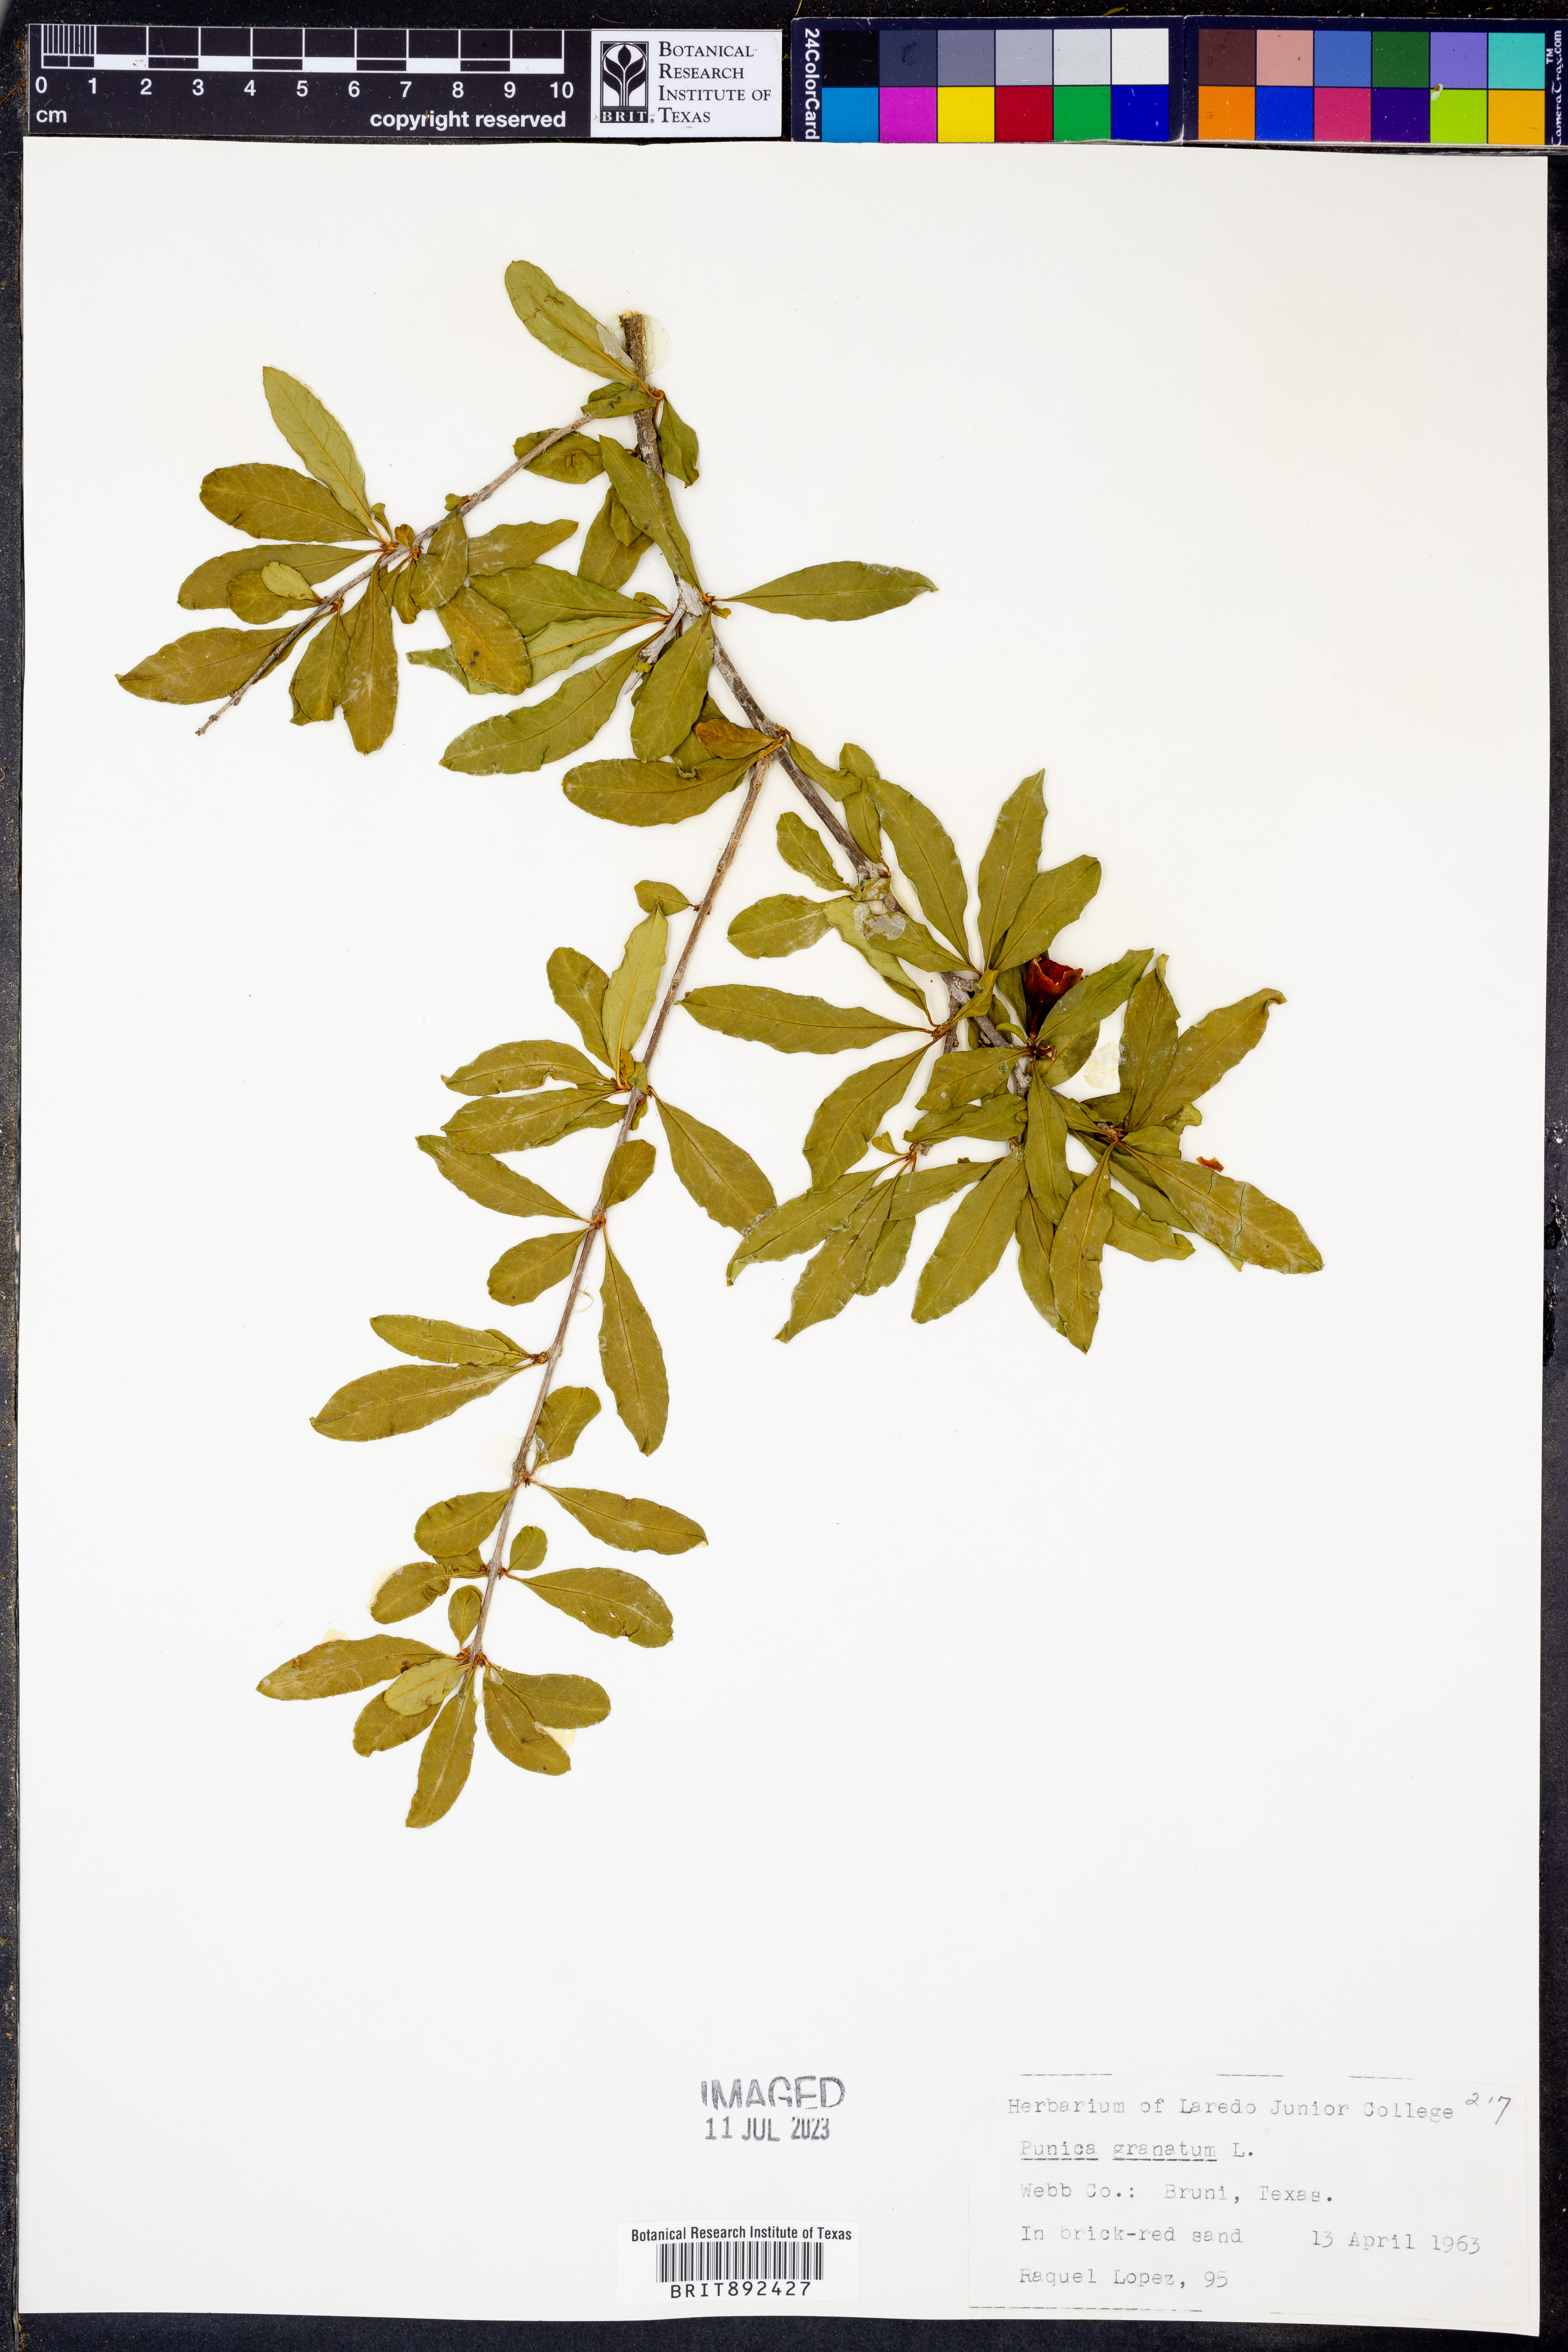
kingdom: Plantae
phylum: Tracheophyta
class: Magnoliopsida
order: Myrtales
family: Lythraceae
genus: Punica
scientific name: Punica granatum
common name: Pomegranate
